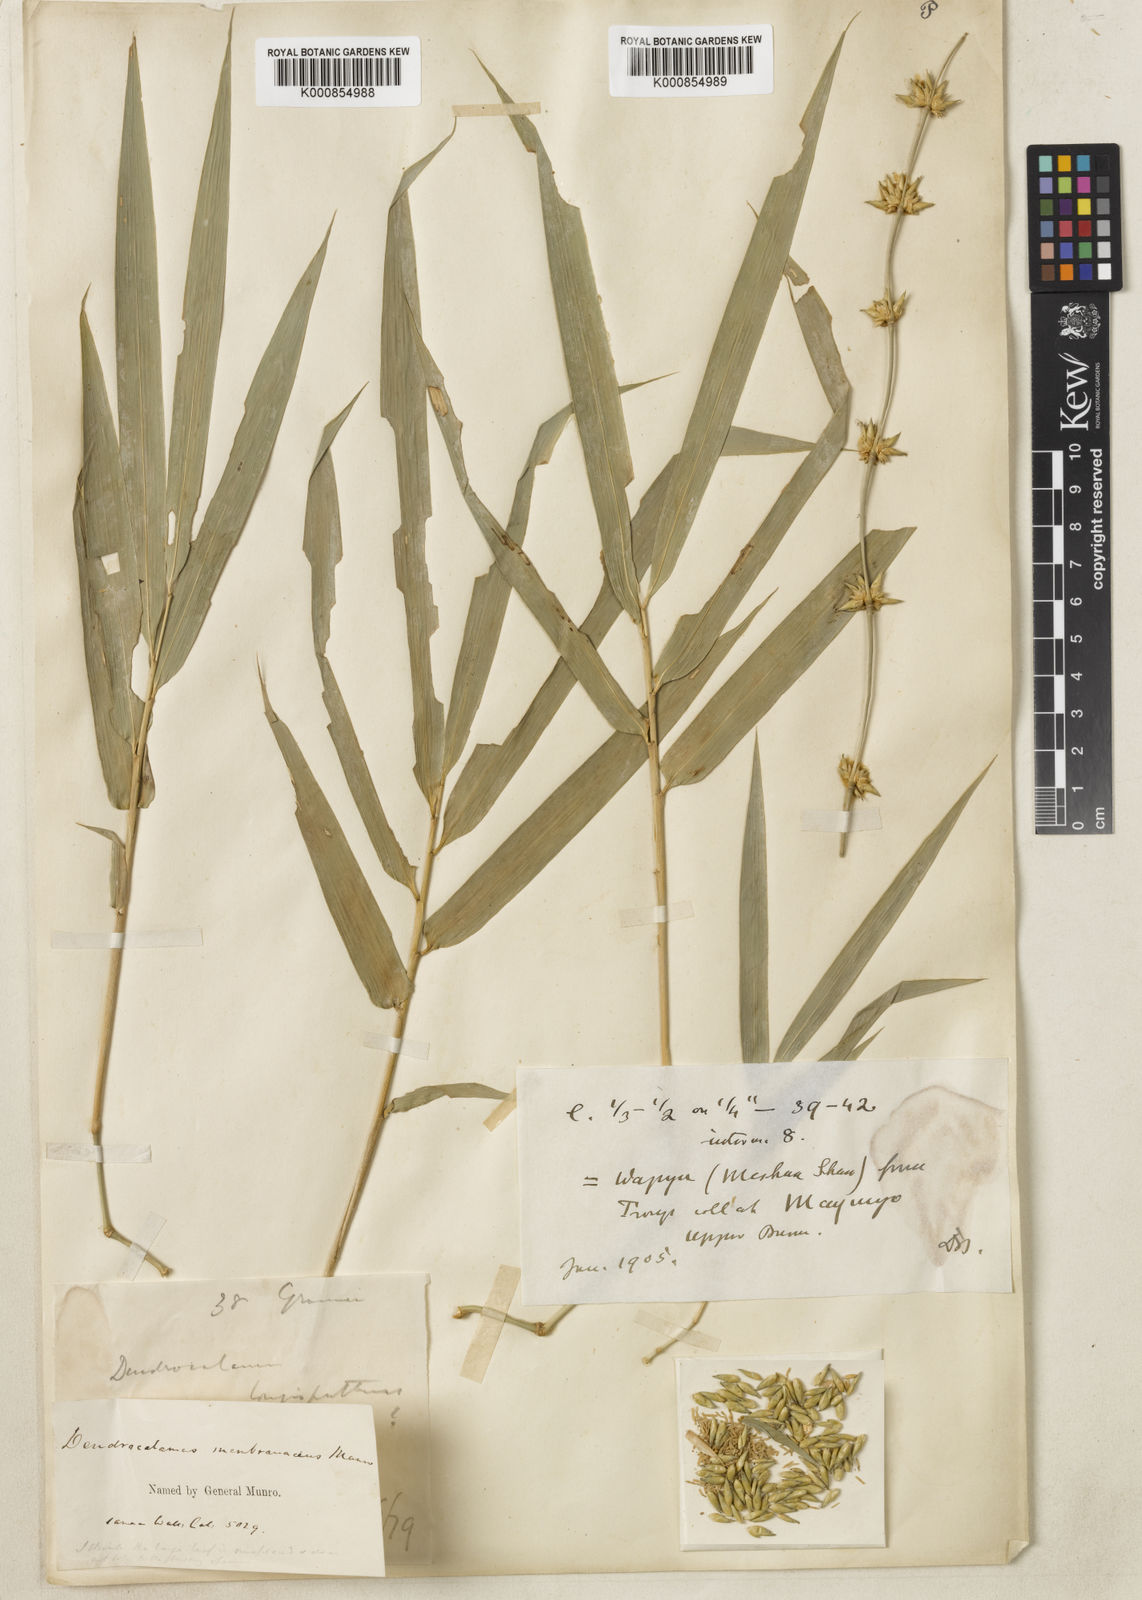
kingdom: Plantae
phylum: Tracheophyta
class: Liliopsida
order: Poales
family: Poaceae
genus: Dendrocalamus
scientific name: Dendrocalamus membranaceus
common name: White bamboo
